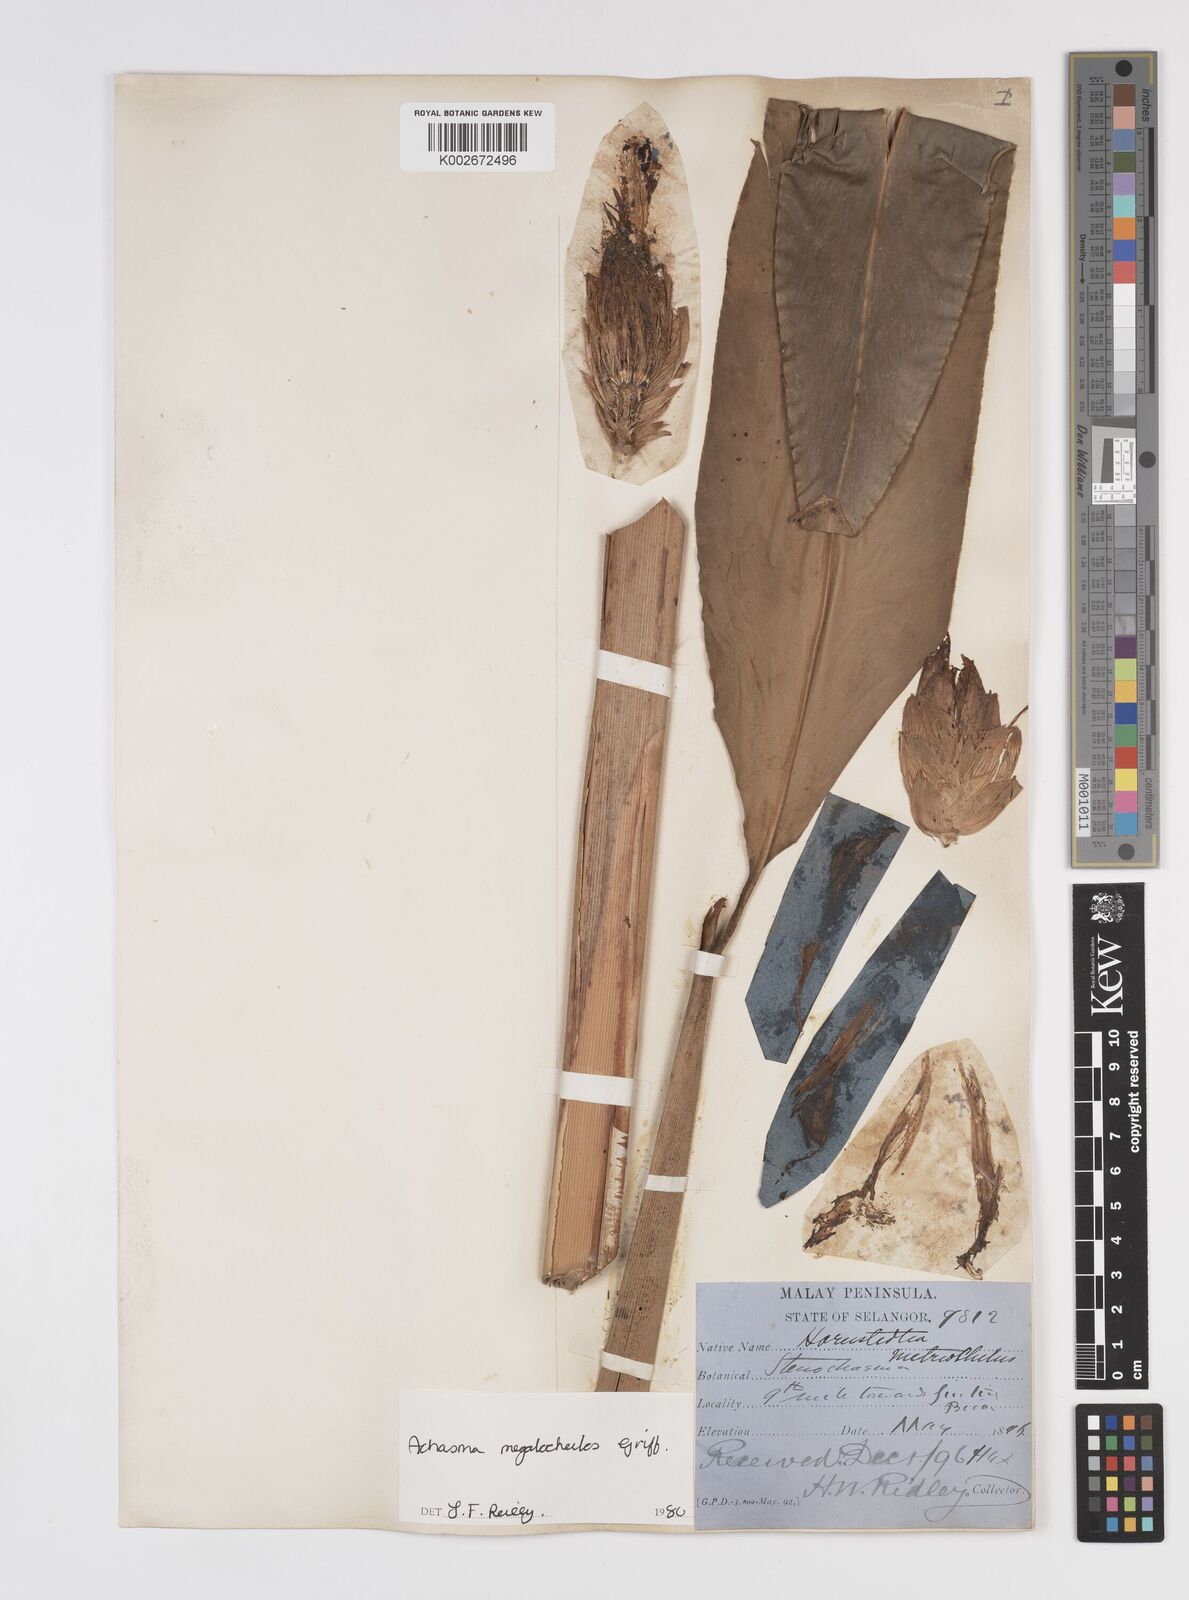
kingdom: Plantae
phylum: Tracheophyta
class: Liliopsida
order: Zingiberales
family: Zingiberaceae
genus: Etlingera
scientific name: Etlingera metriocheilos
